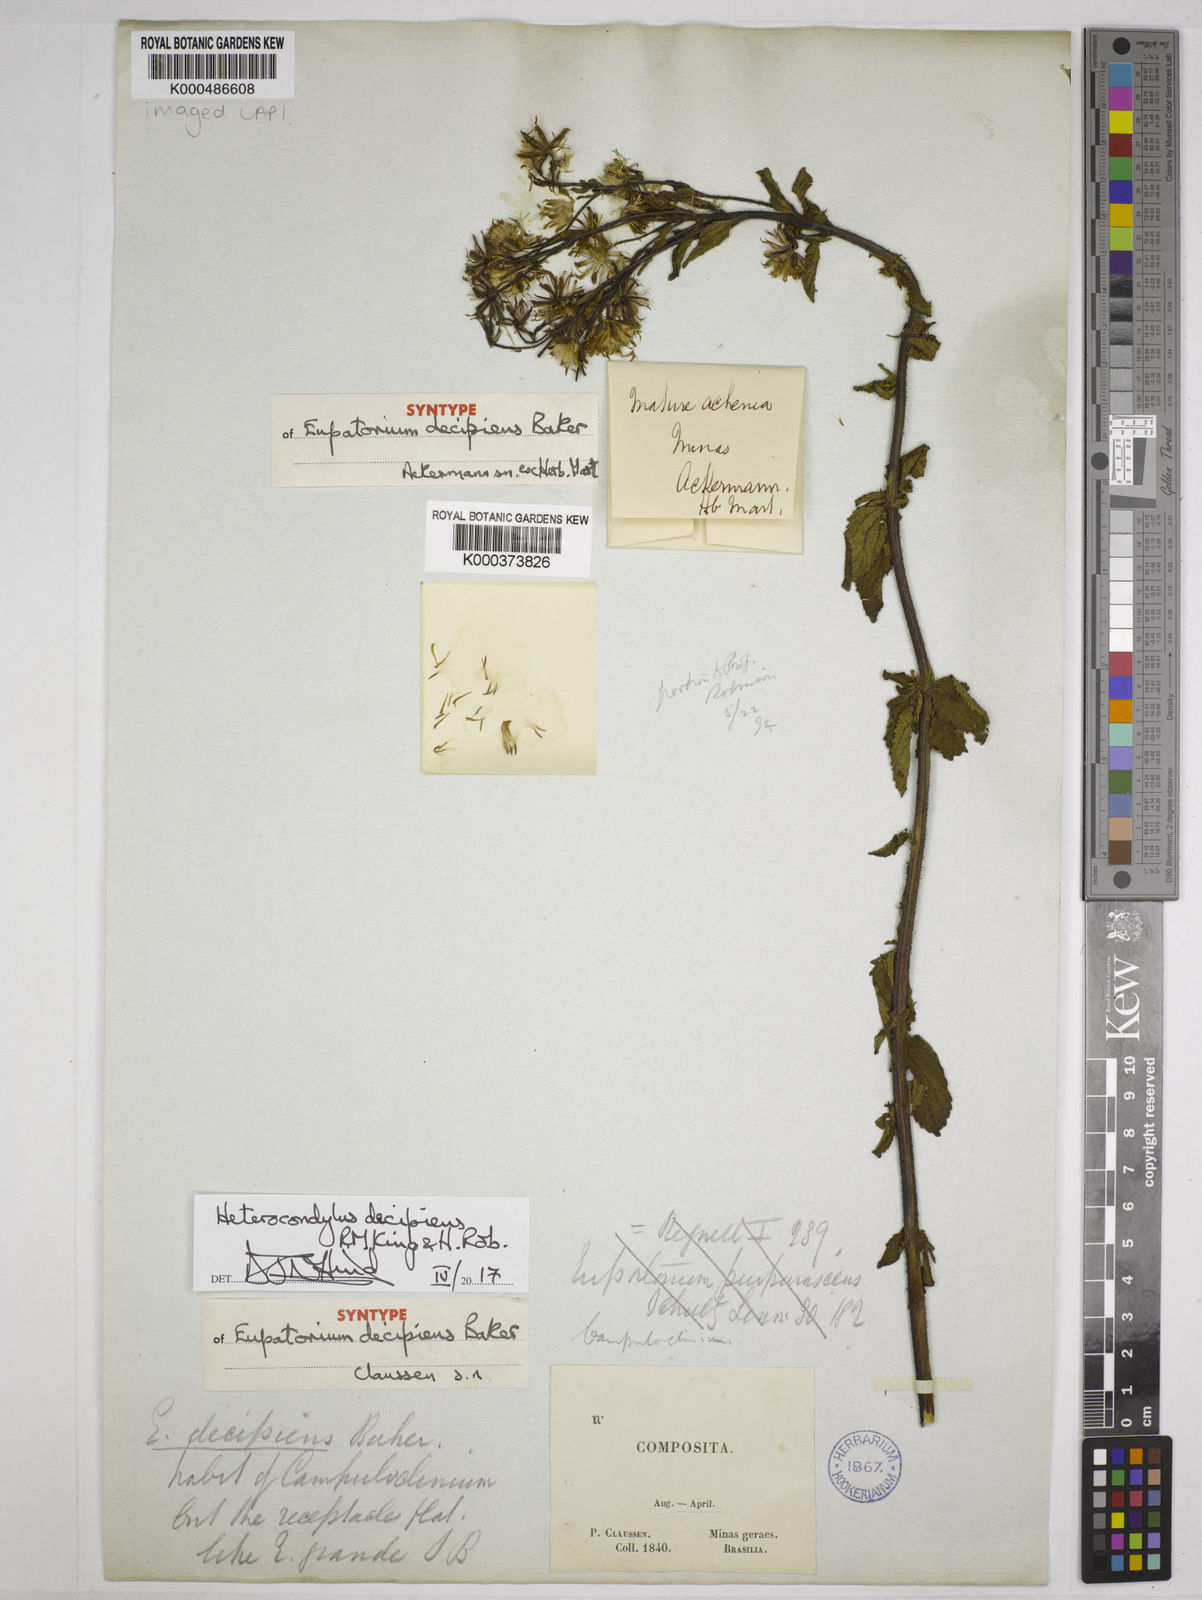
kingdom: Plantae
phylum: Tracheophyta
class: Magnoliopsida
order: Asterales
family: Asteraceae
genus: Heterocondylus
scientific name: Heterocondylus decipiens
